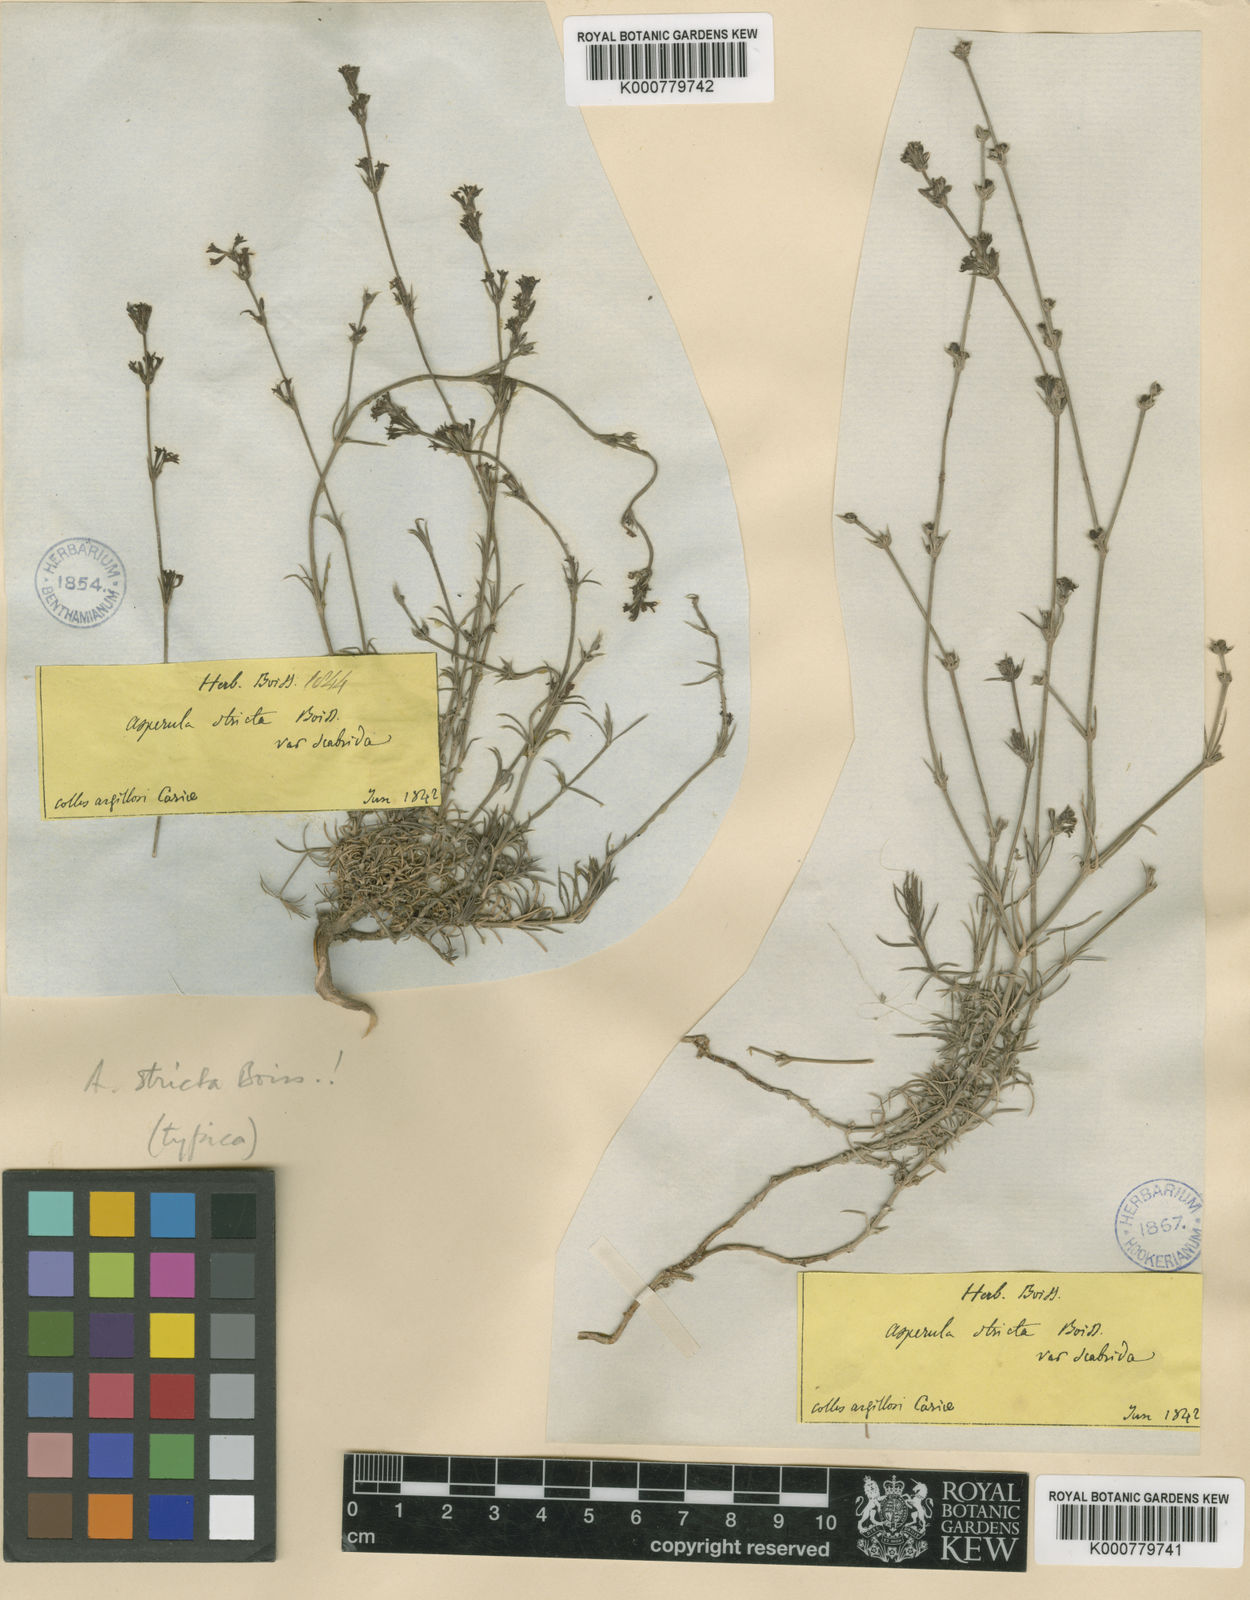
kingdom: Plantae
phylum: Tracheophyta
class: Magnoliopsida
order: Gentianales
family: Rubiaceae
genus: Cynanchica
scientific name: Cynanchica stricta
